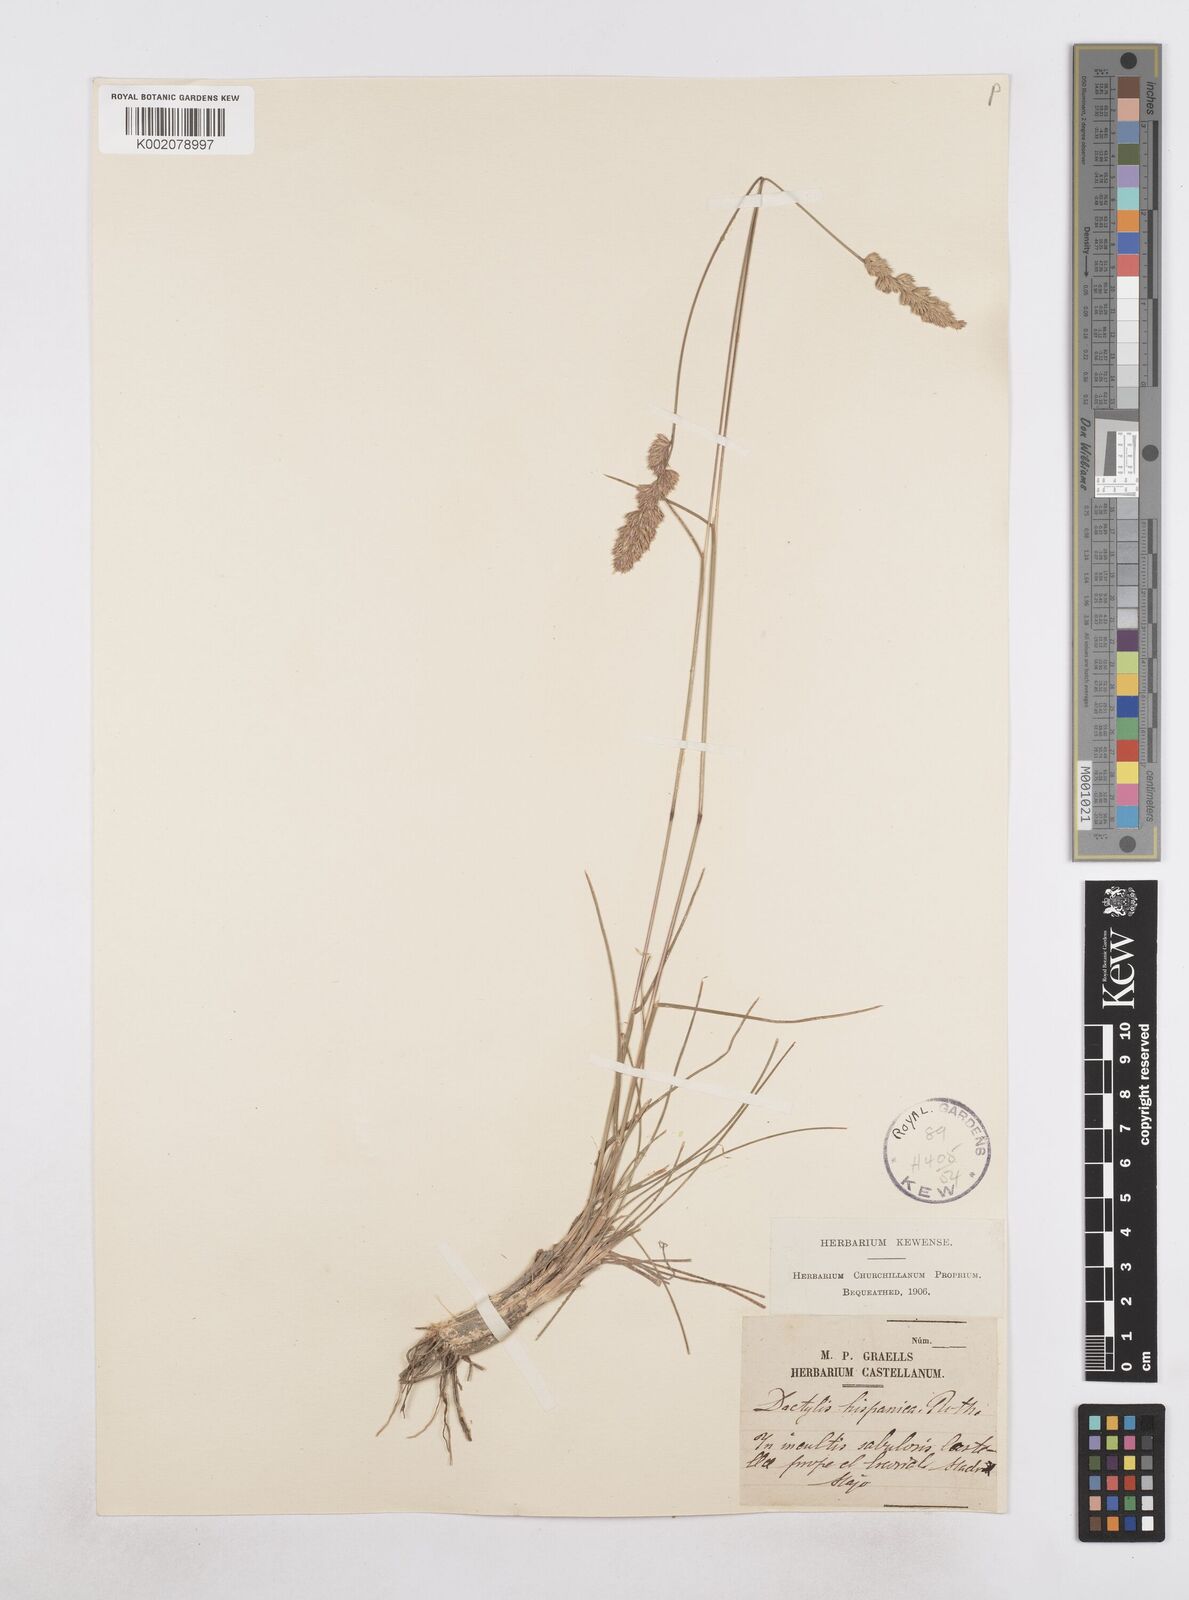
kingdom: Plantae
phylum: Tracheophyta
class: Liliopsida
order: Poales
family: Poaceae
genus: Dactylis
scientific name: Dactylis glomerata
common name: Orchardgrass
